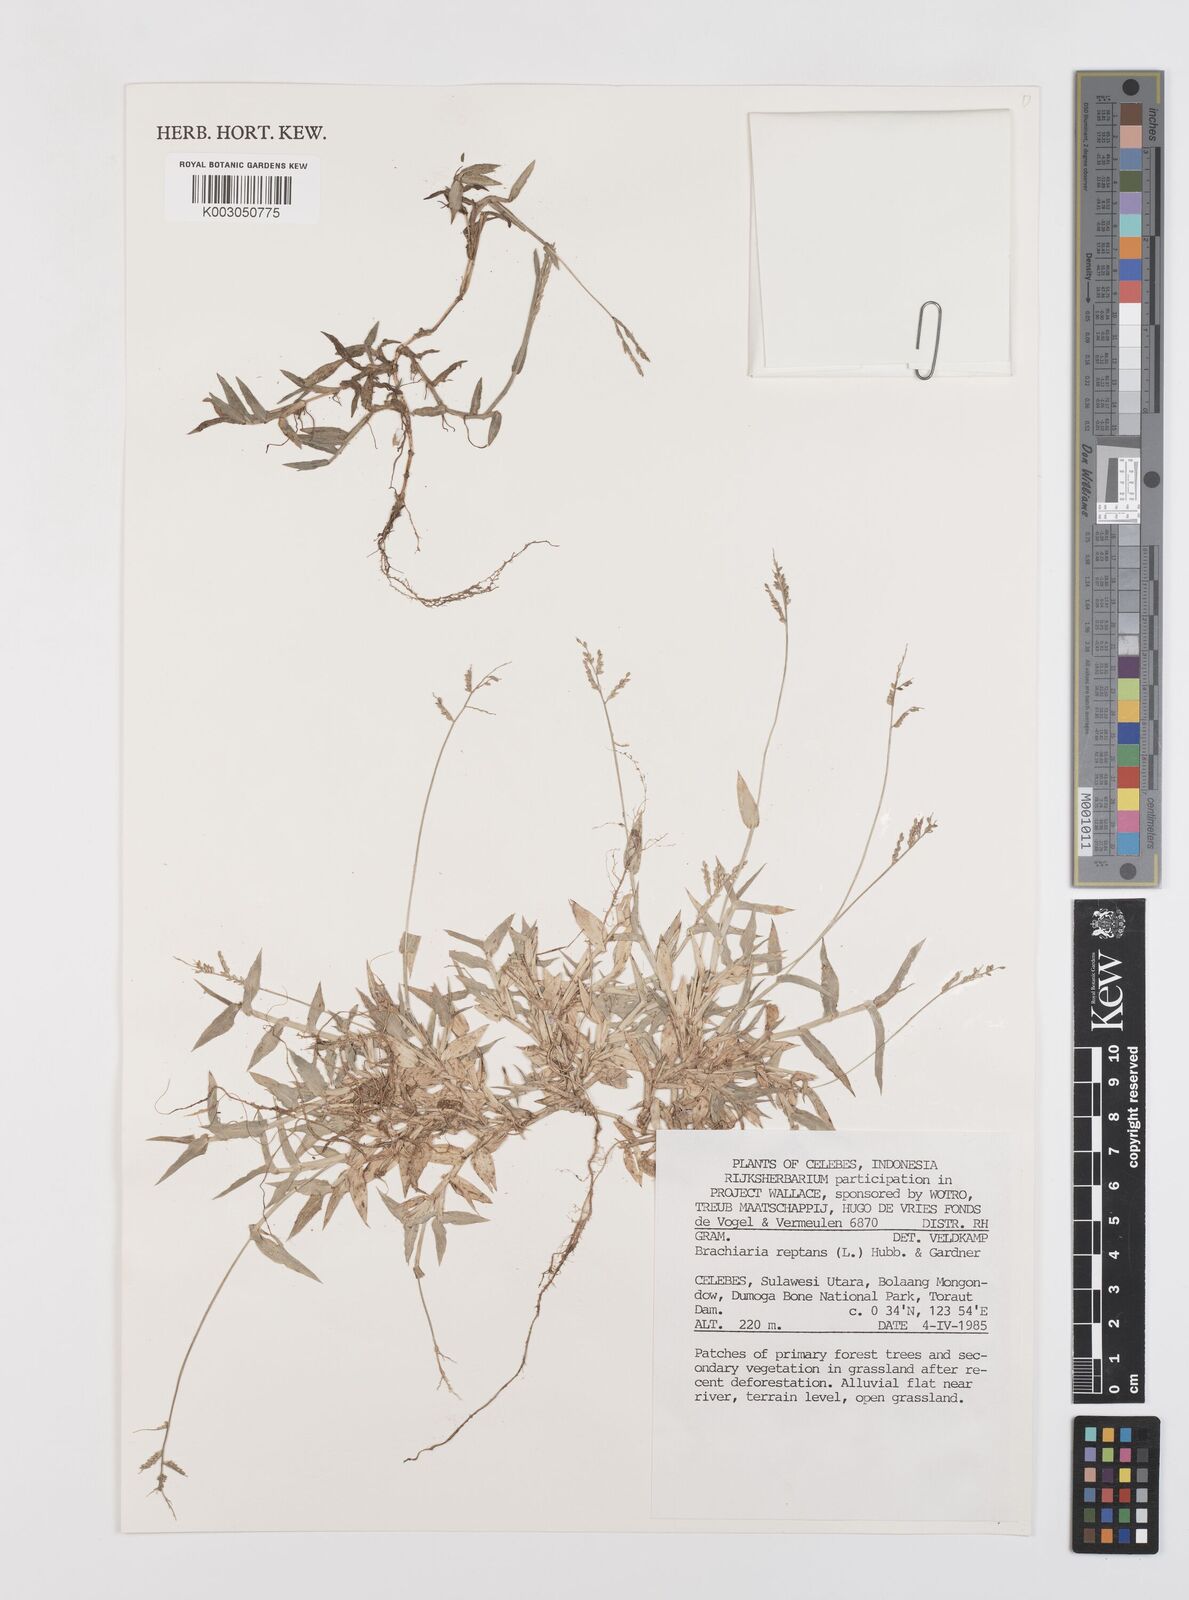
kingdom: Plantae
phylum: Tracheophyta
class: Liliopsida
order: Poales
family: Poaceae
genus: Urochloa
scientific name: Urochloa reptans
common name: Sprawling signalgrass
